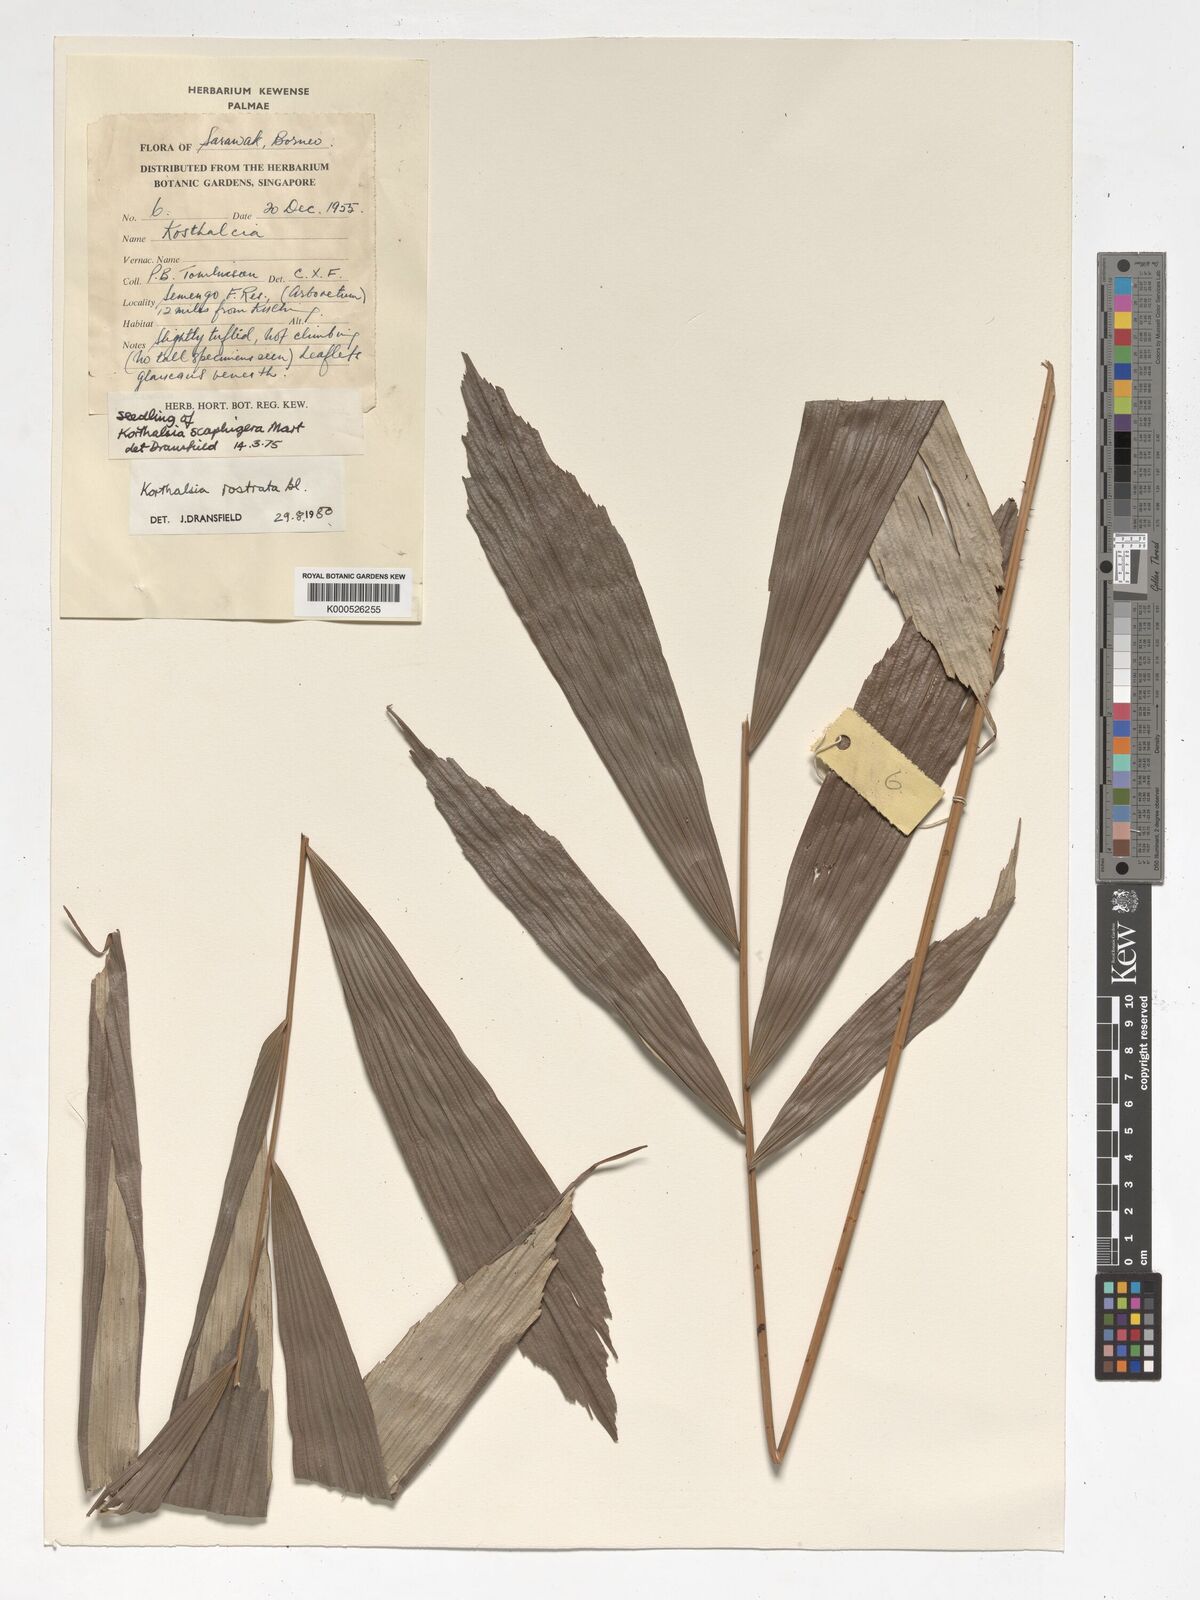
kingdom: Plantae
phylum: Tracheophyta
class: Liliopsida
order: Arecales
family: Arecaceae
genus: Korthalsia
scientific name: Korthalsia rostrata
